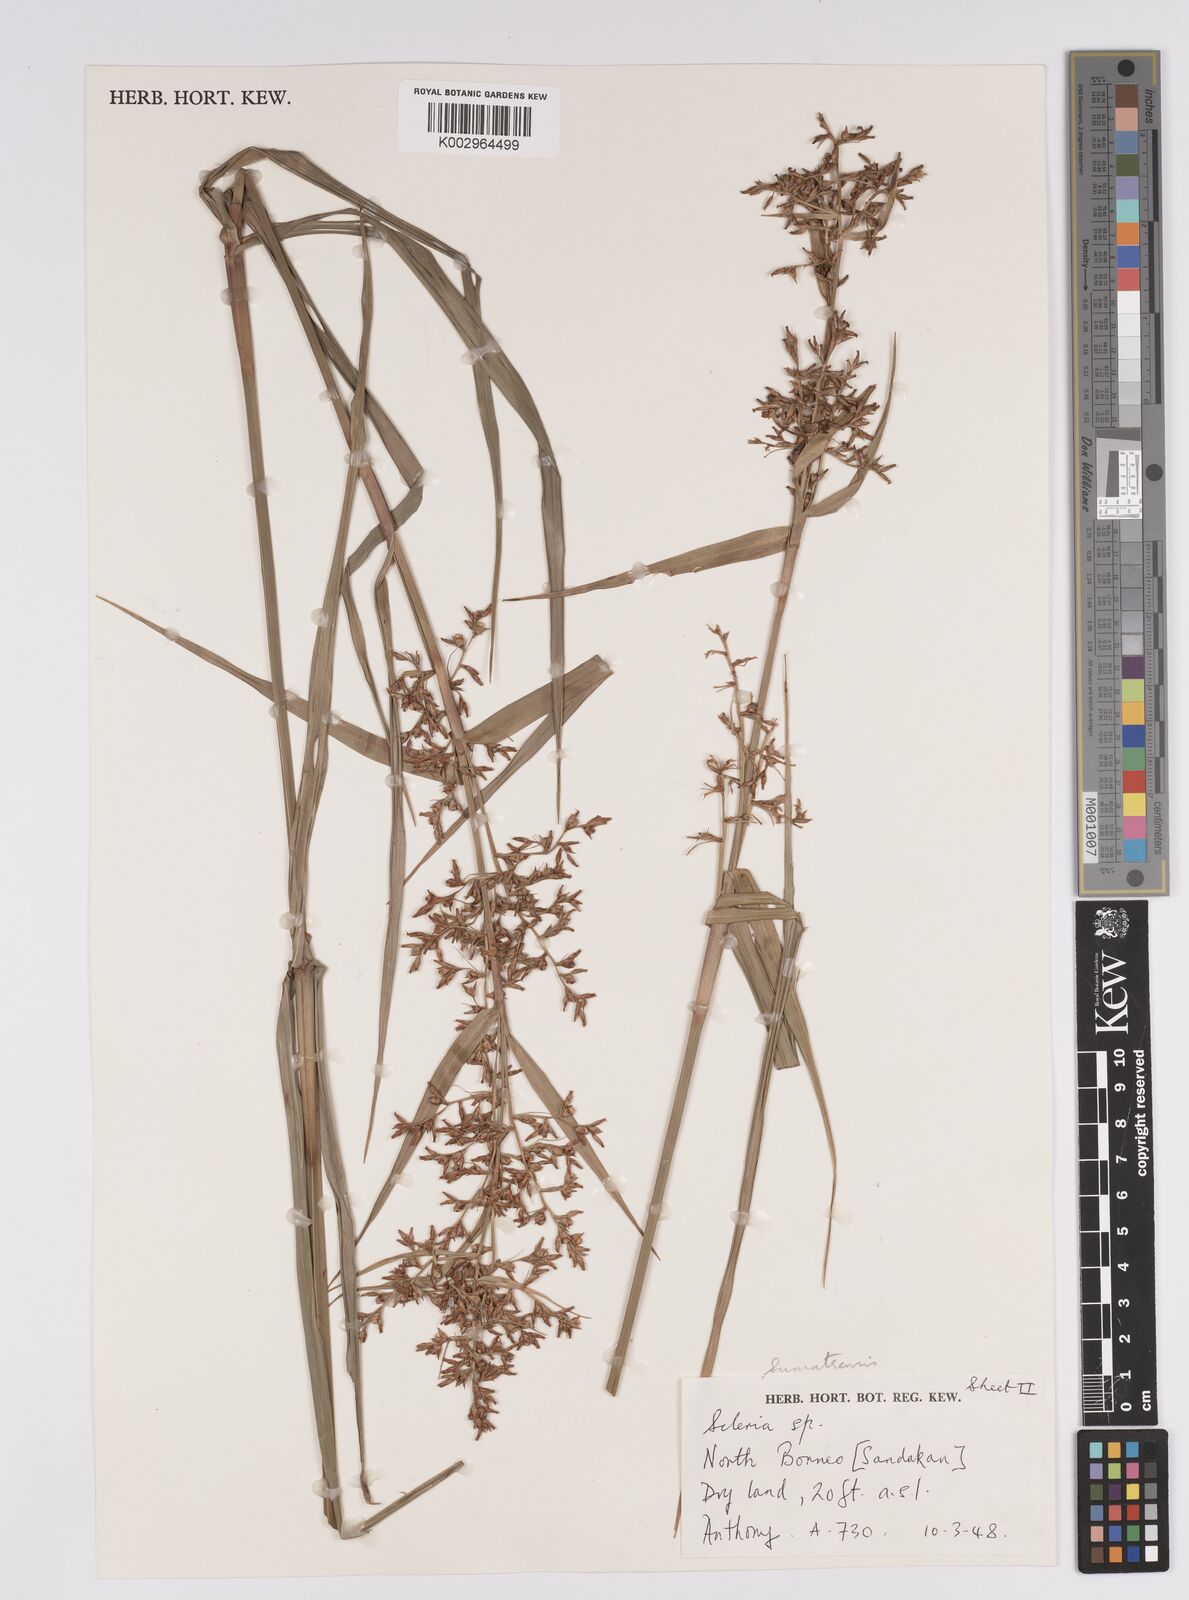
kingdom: Plantae
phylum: Tracheophyta
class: Liliopsida
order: Poales
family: Cyperaceae
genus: Scleria
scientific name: Scleria sumatrensis
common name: Sumatran scleria
